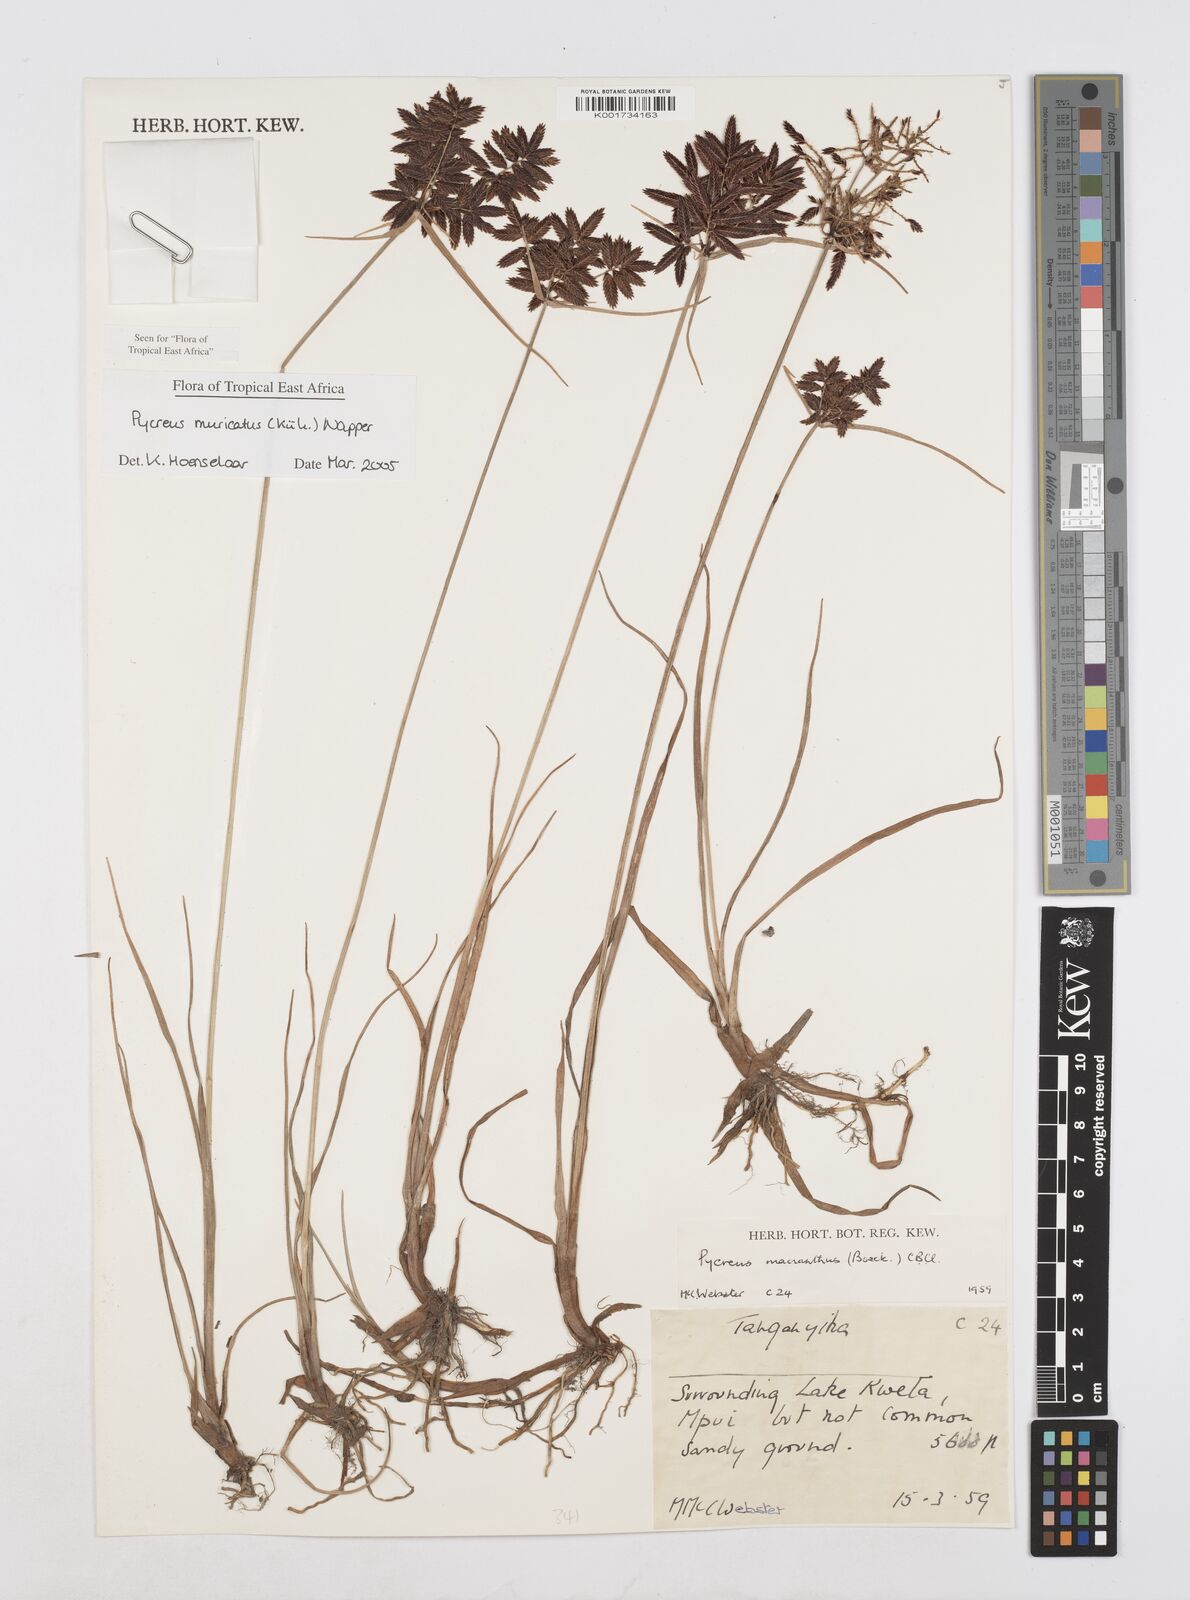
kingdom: Plantae
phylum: Tracheophyta
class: Liliopsida
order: Poales
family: Cyperaceae
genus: Cyperus
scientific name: Cyperus nigricans
